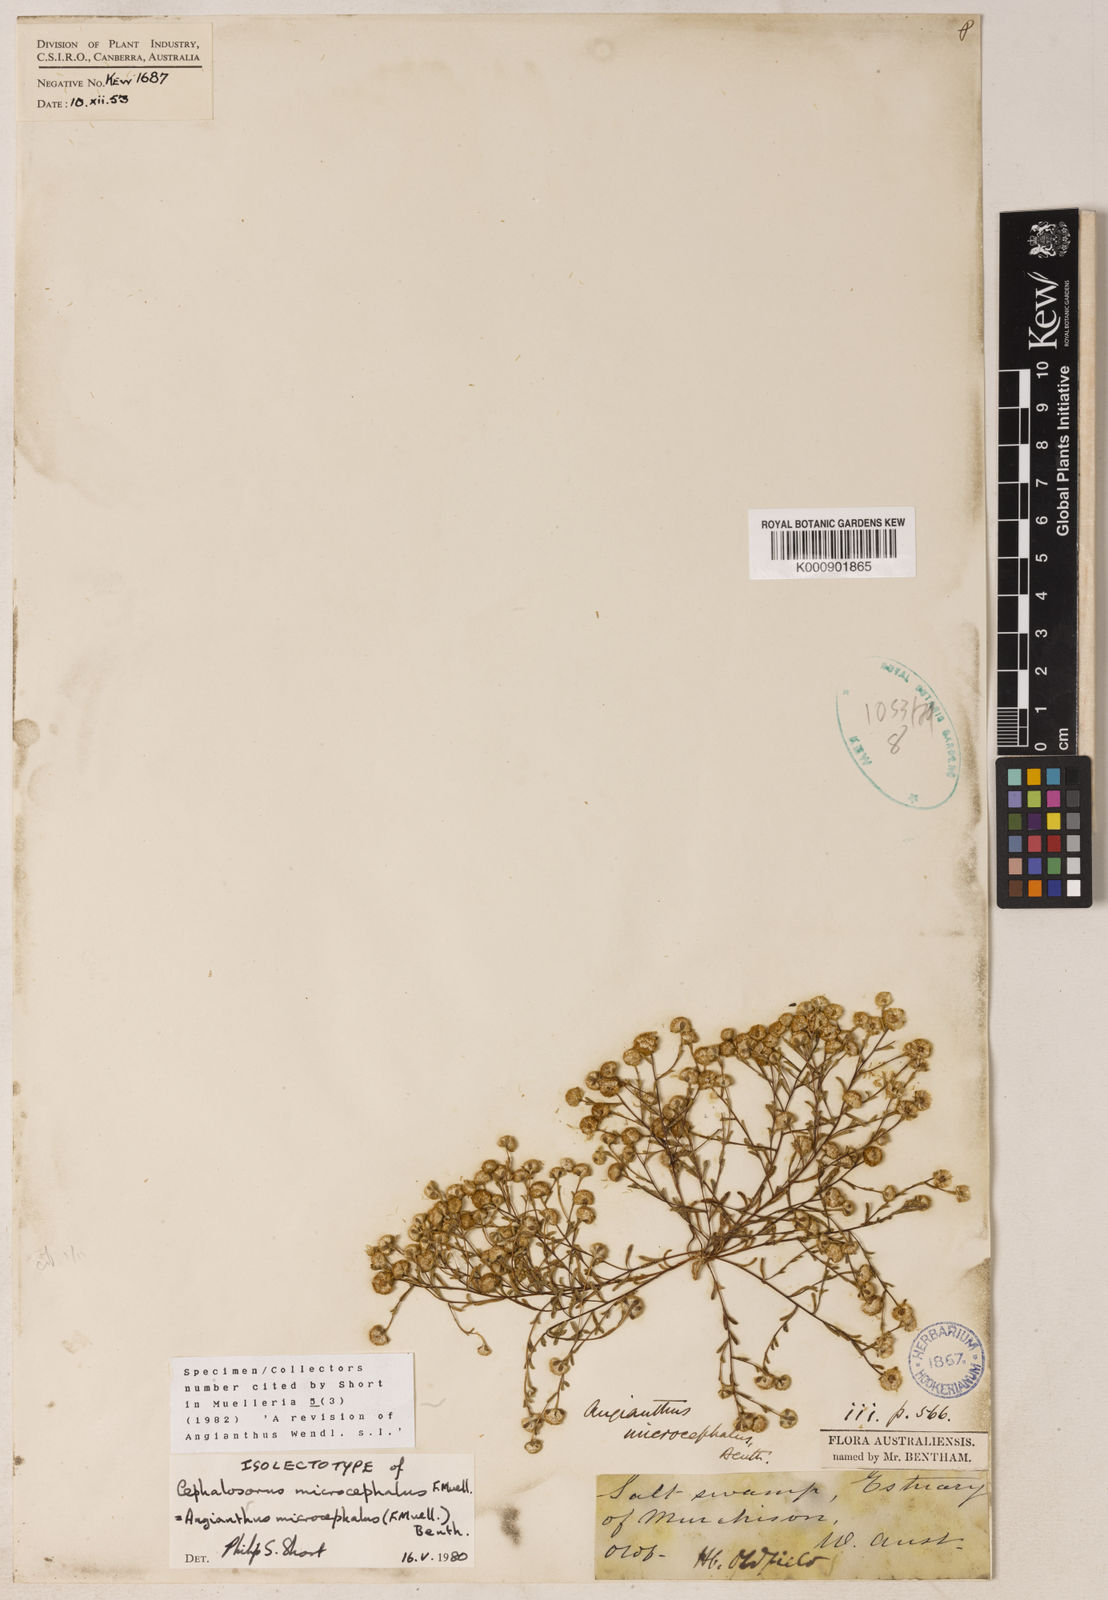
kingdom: Plantae
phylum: Tracheophyta
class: Magnoliopsida
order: Asterales
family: Asteraceae
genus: Angianthus
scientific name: Angianthus prostratus
